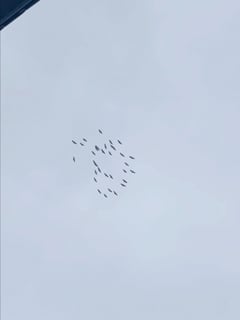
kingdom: Animalia
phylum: Chordata
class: Aves
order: Gruiformes
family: Gruidae
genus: Grus
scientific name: Grus grus
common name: Common crane
